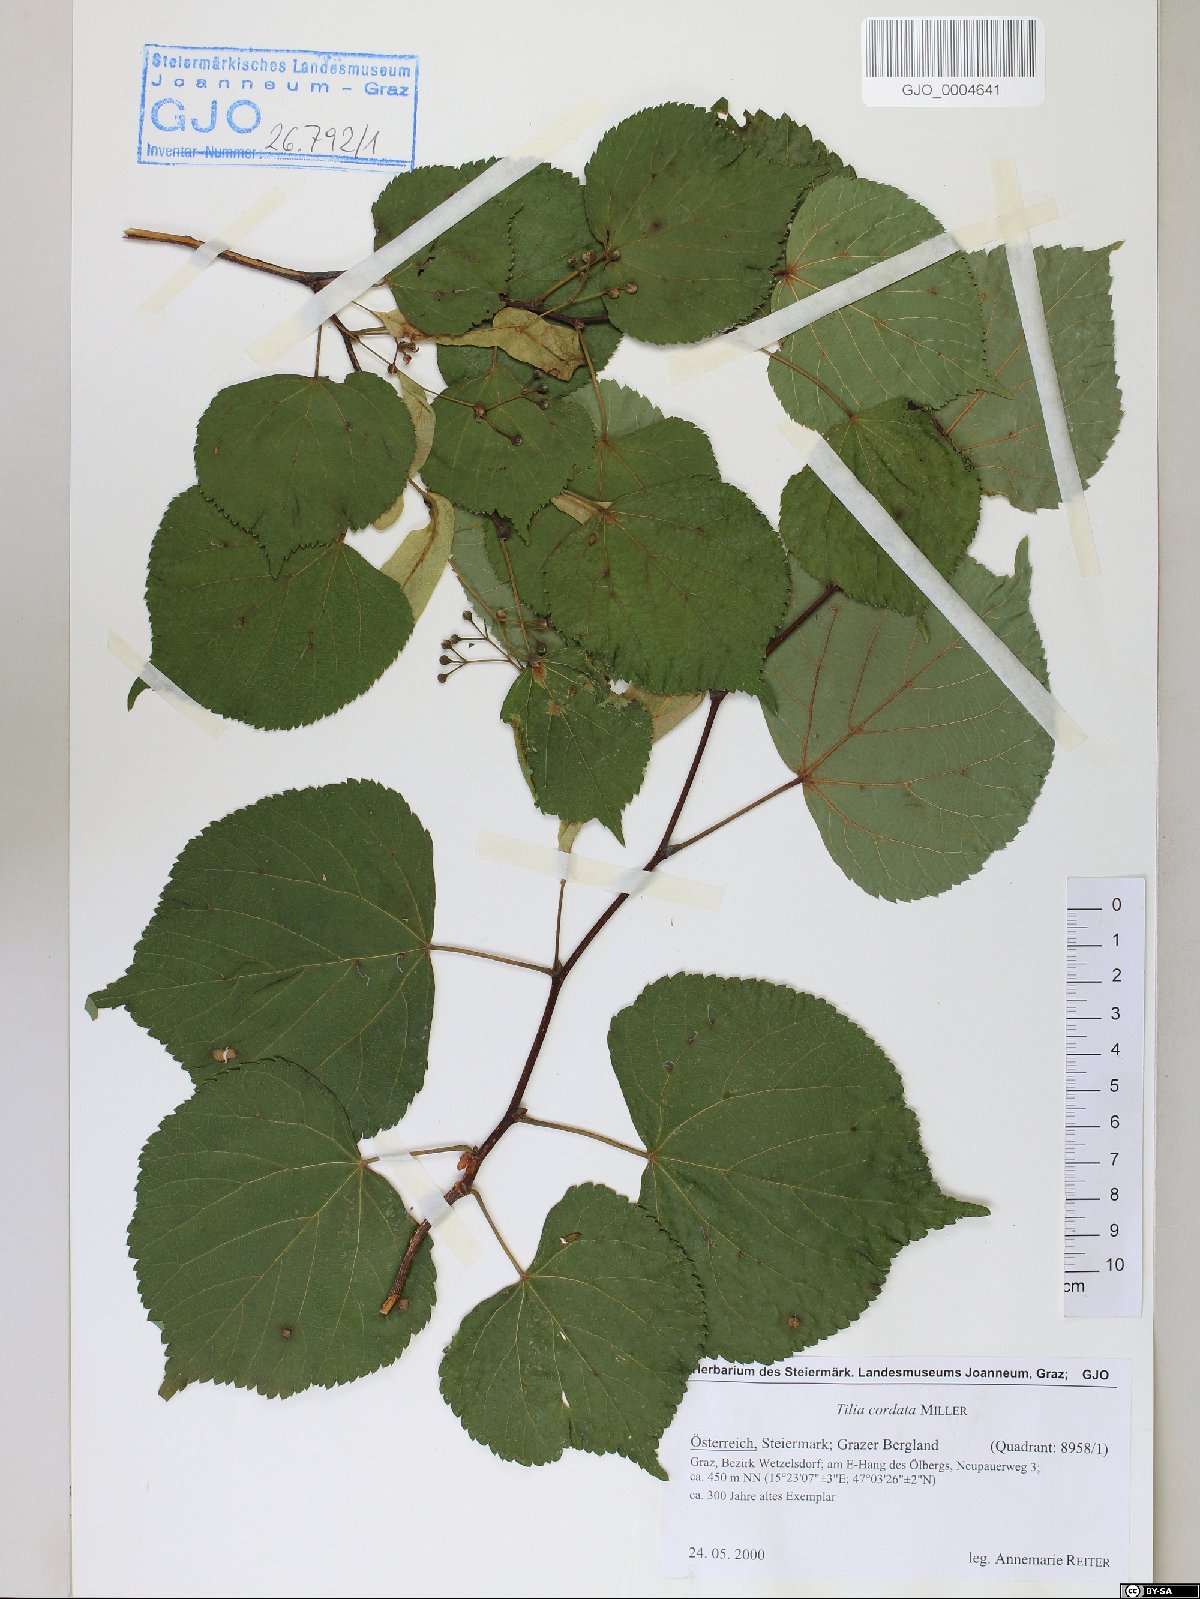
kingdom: Plantae
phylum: Tracheophyta
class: Magnoliopsida
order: Malvales
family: Malvaceae
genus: Tilia
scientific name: Tilia cordata
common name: Small-leaved lime
